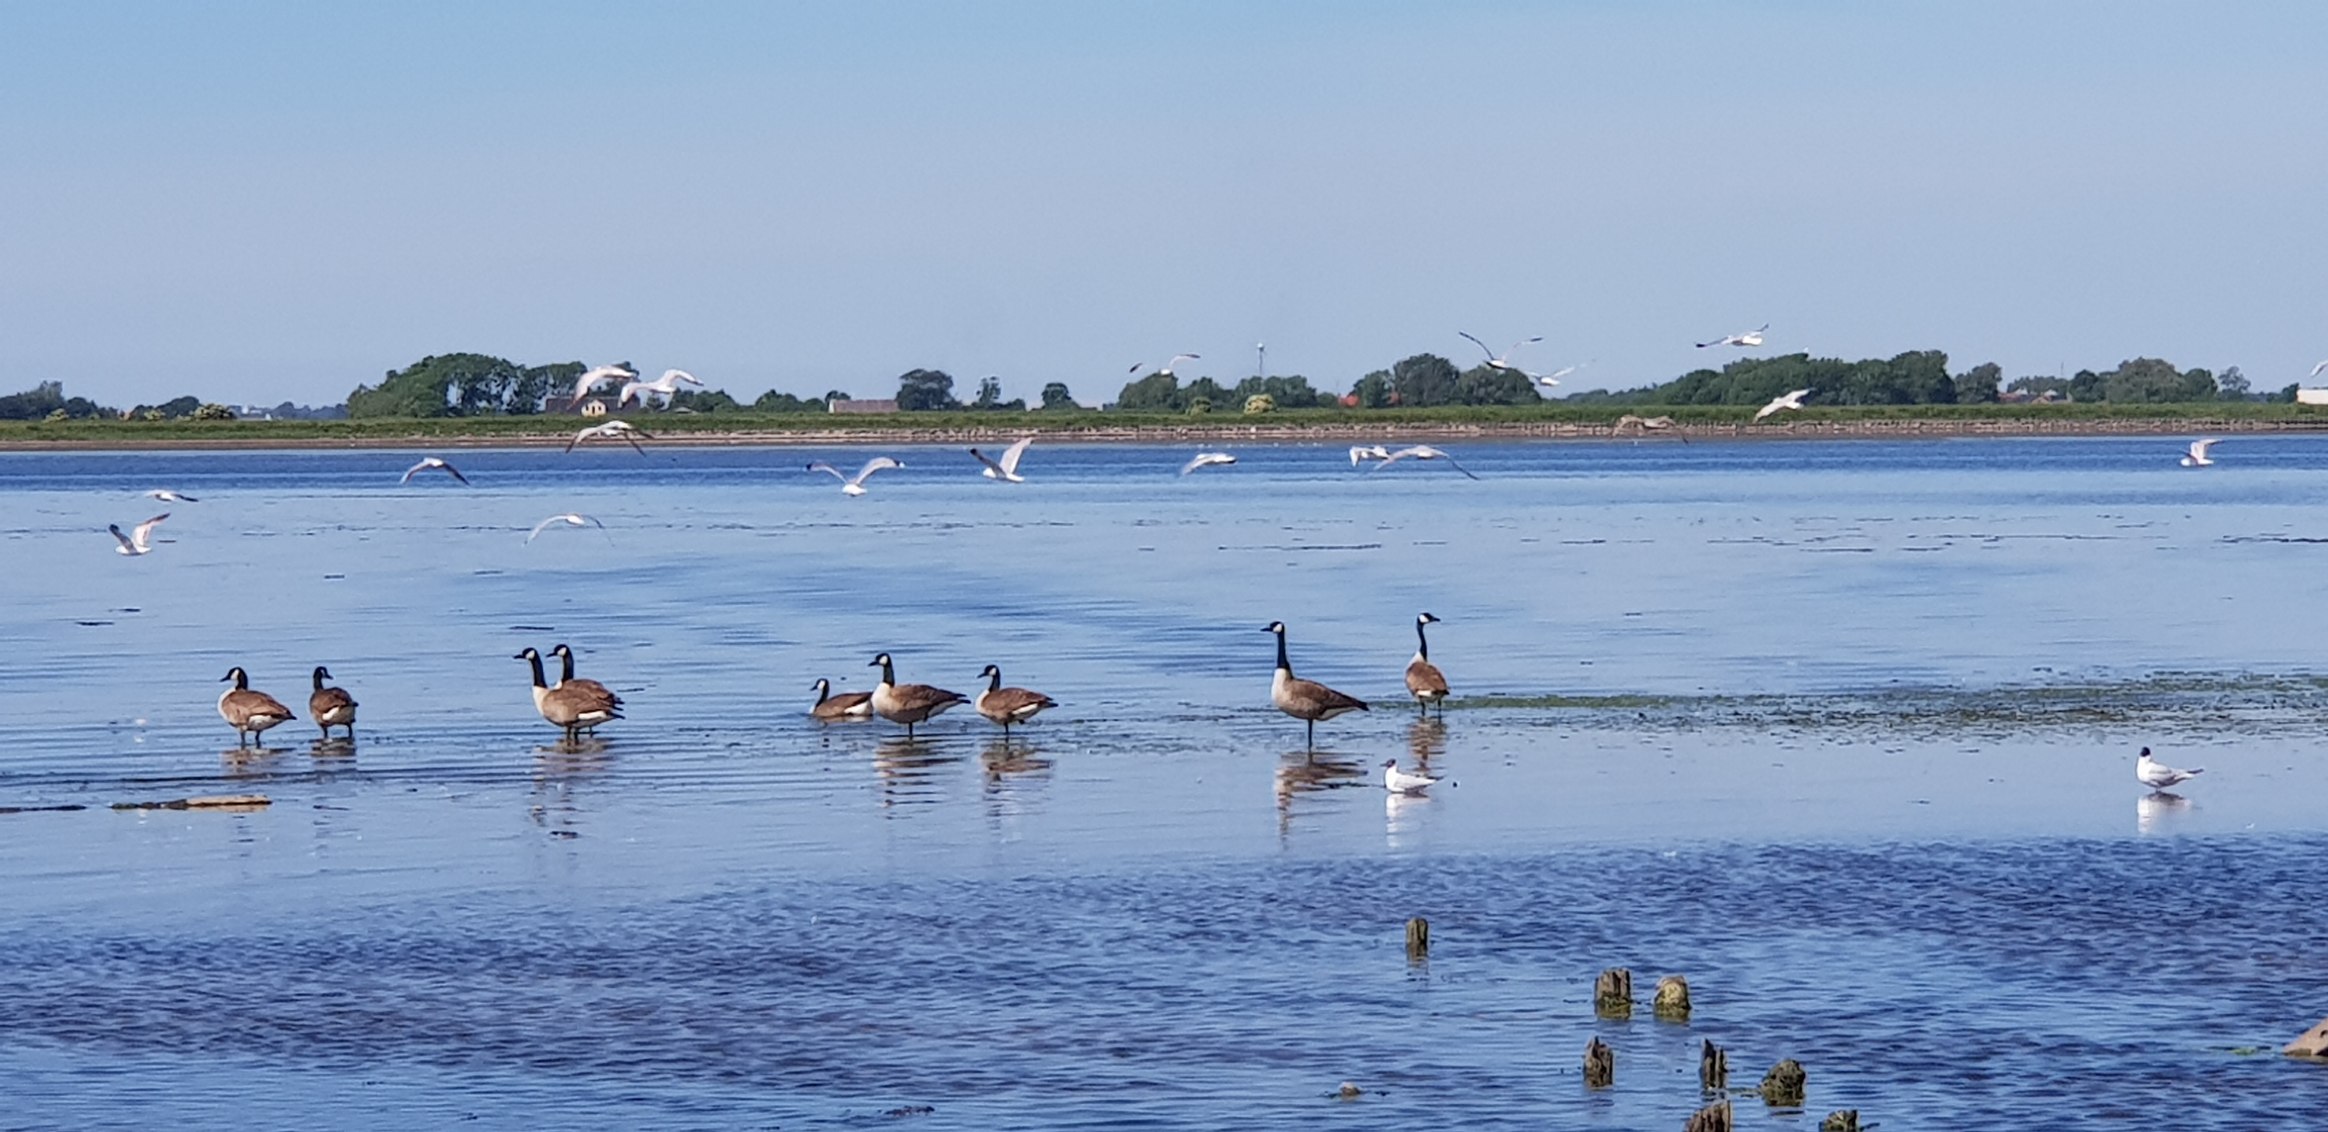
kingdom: Animalia
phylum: Chordata
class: Aves
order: Anseriformes
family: Anatidae
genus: Branta
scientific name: Branta canadensis
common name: Canadagås
